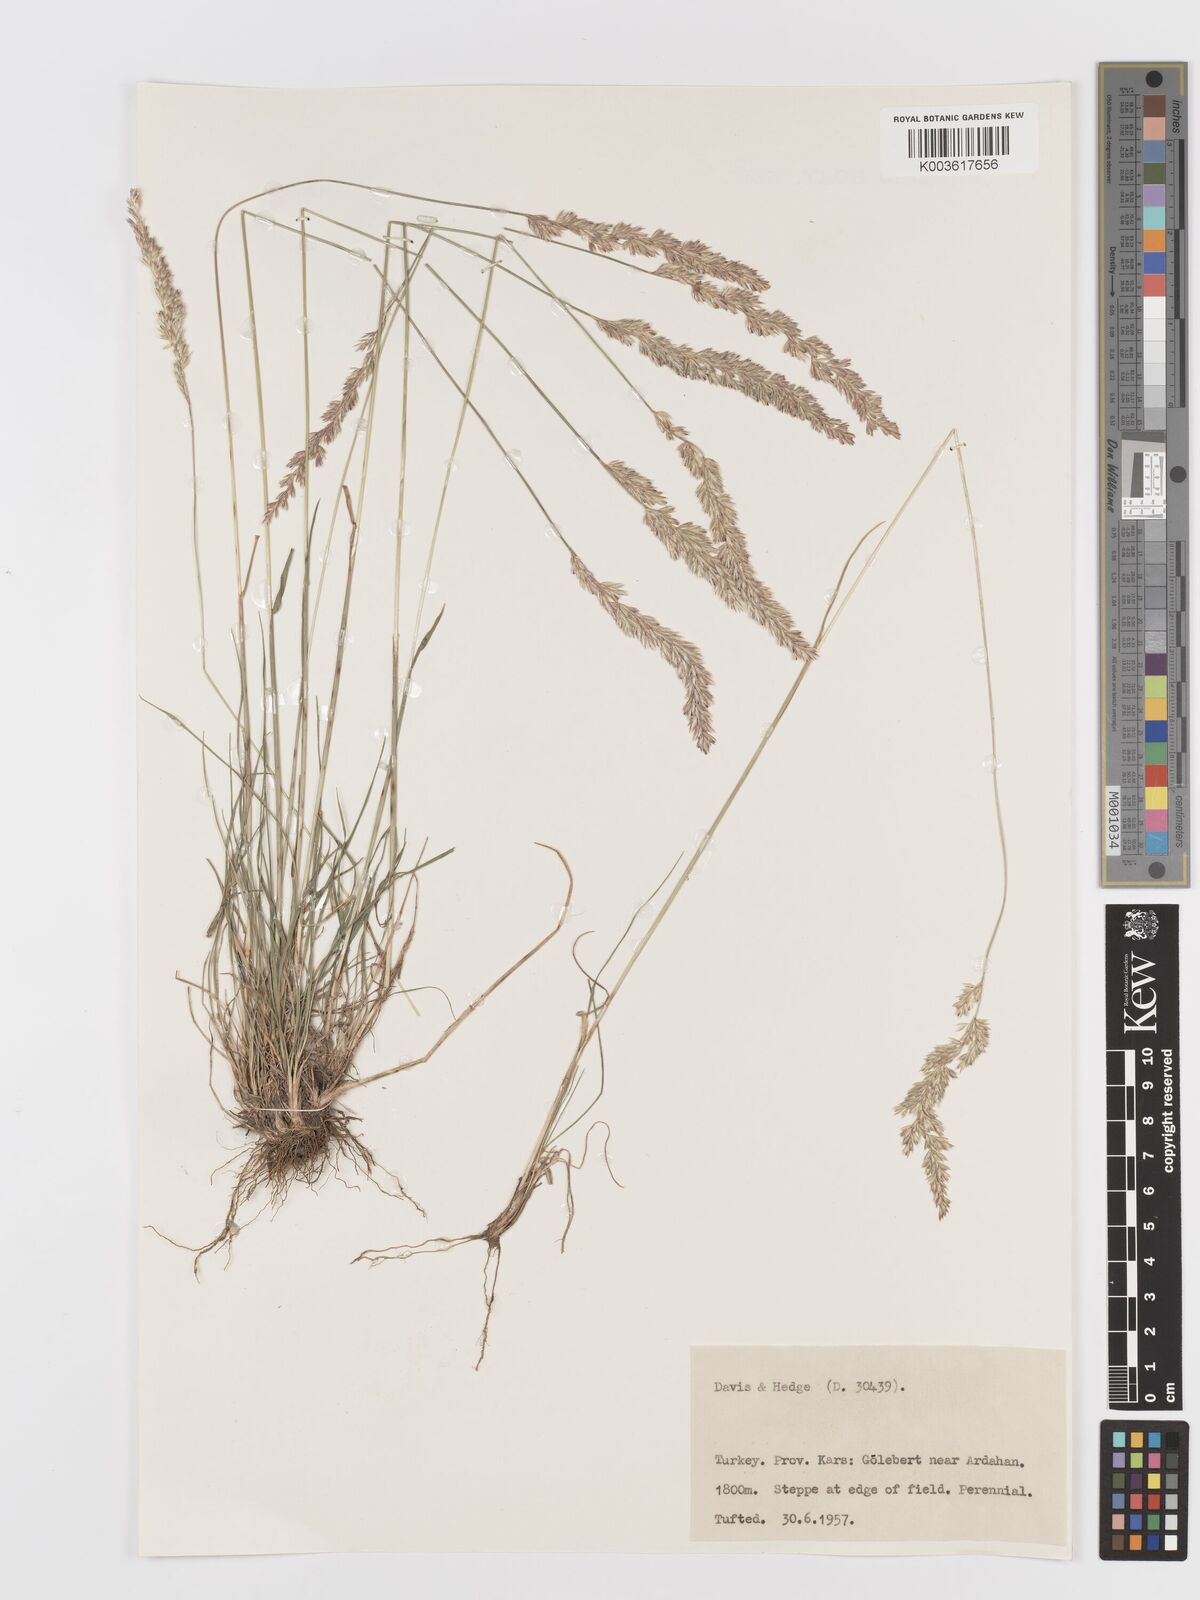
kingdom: Plantae
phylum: Tracheophyta
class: Liliopsida
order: Poales
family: Poaceae
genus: Koeleria
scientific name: Koeleria
